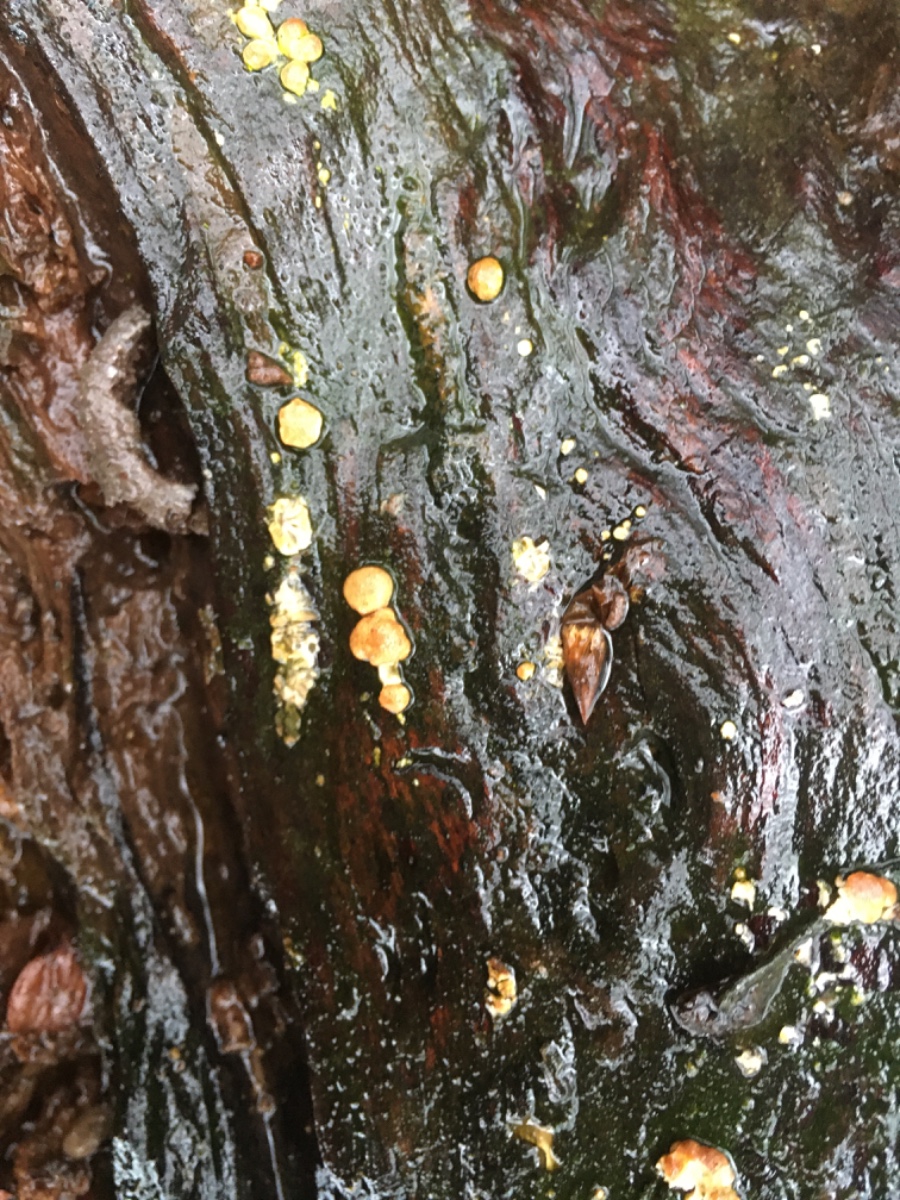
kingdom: Fungi
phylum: Ascomycota
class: Sordariomycetes
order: Hypocreales
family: Hypocreaceae
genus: Trichoderma
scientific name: Trichoderma
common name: kødkerne
